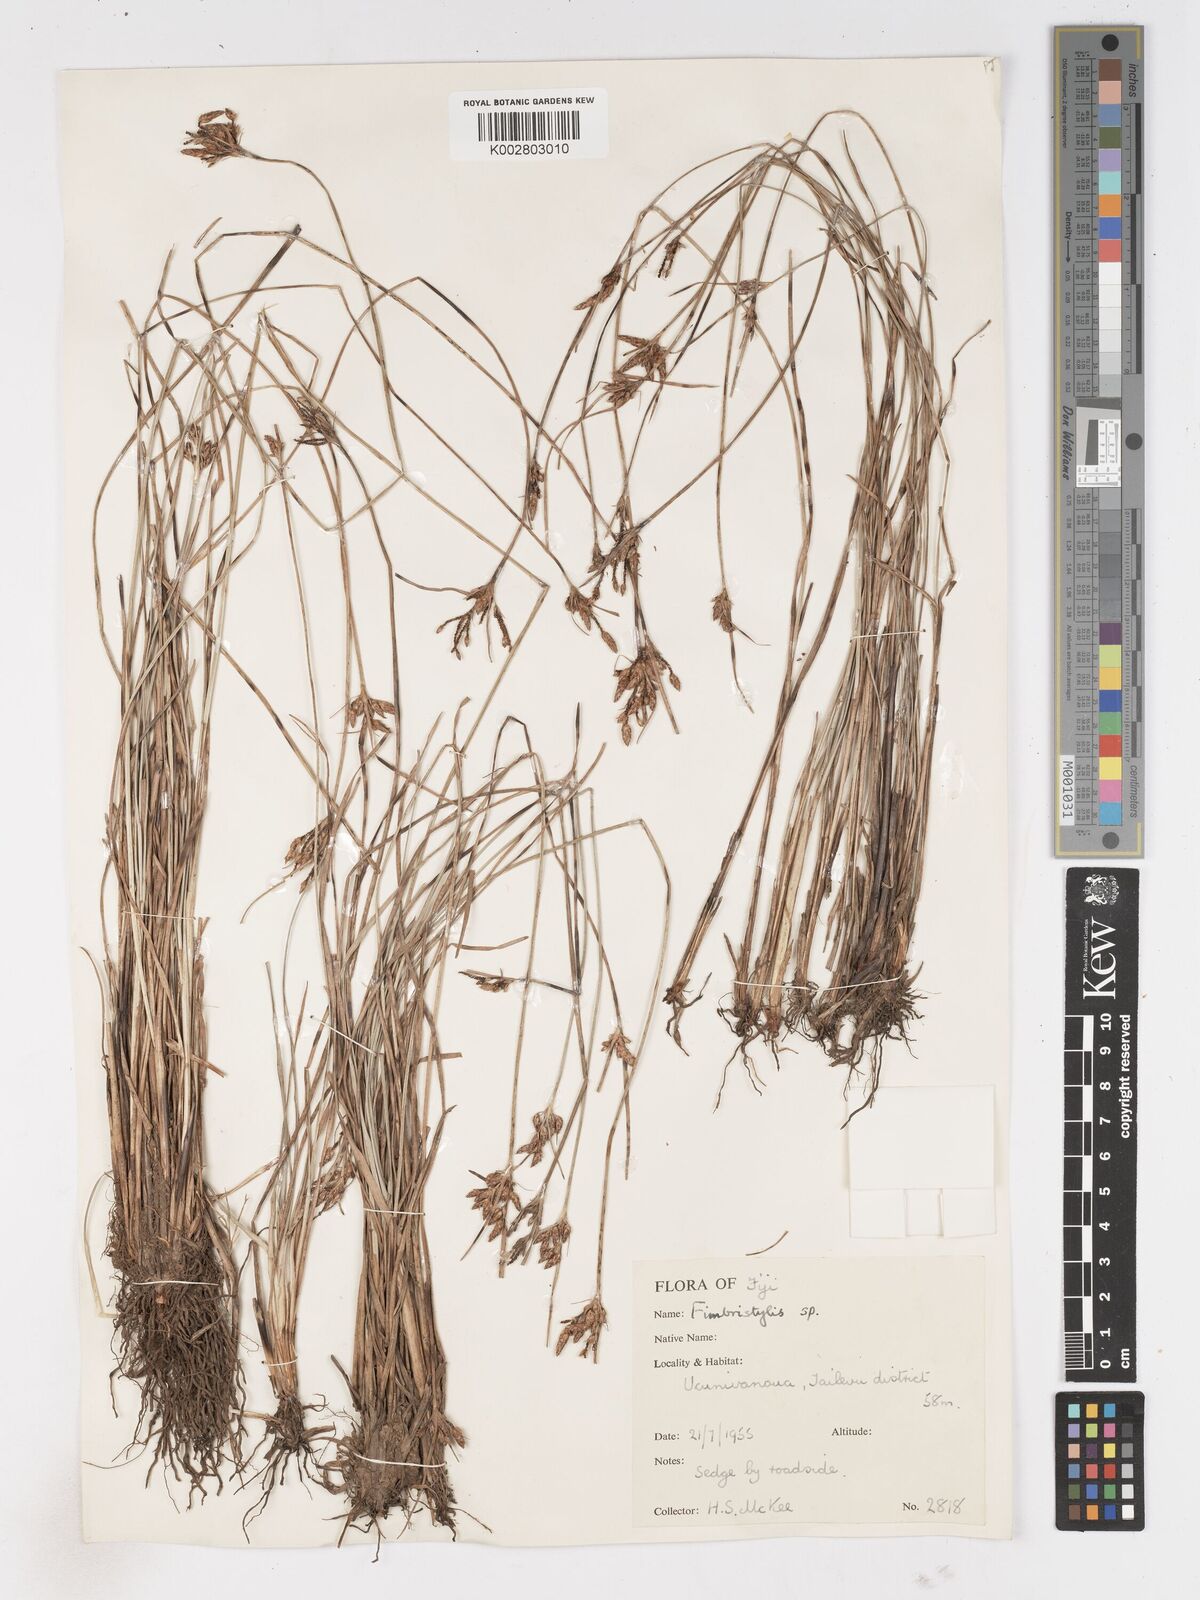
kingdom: Plantae
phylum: Tracheophyta
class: Liliopsida
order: Poales
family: Cyperaceae
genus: Fimbristylis
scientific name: Fimbristylis dichotoma
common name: Forked fimbry
